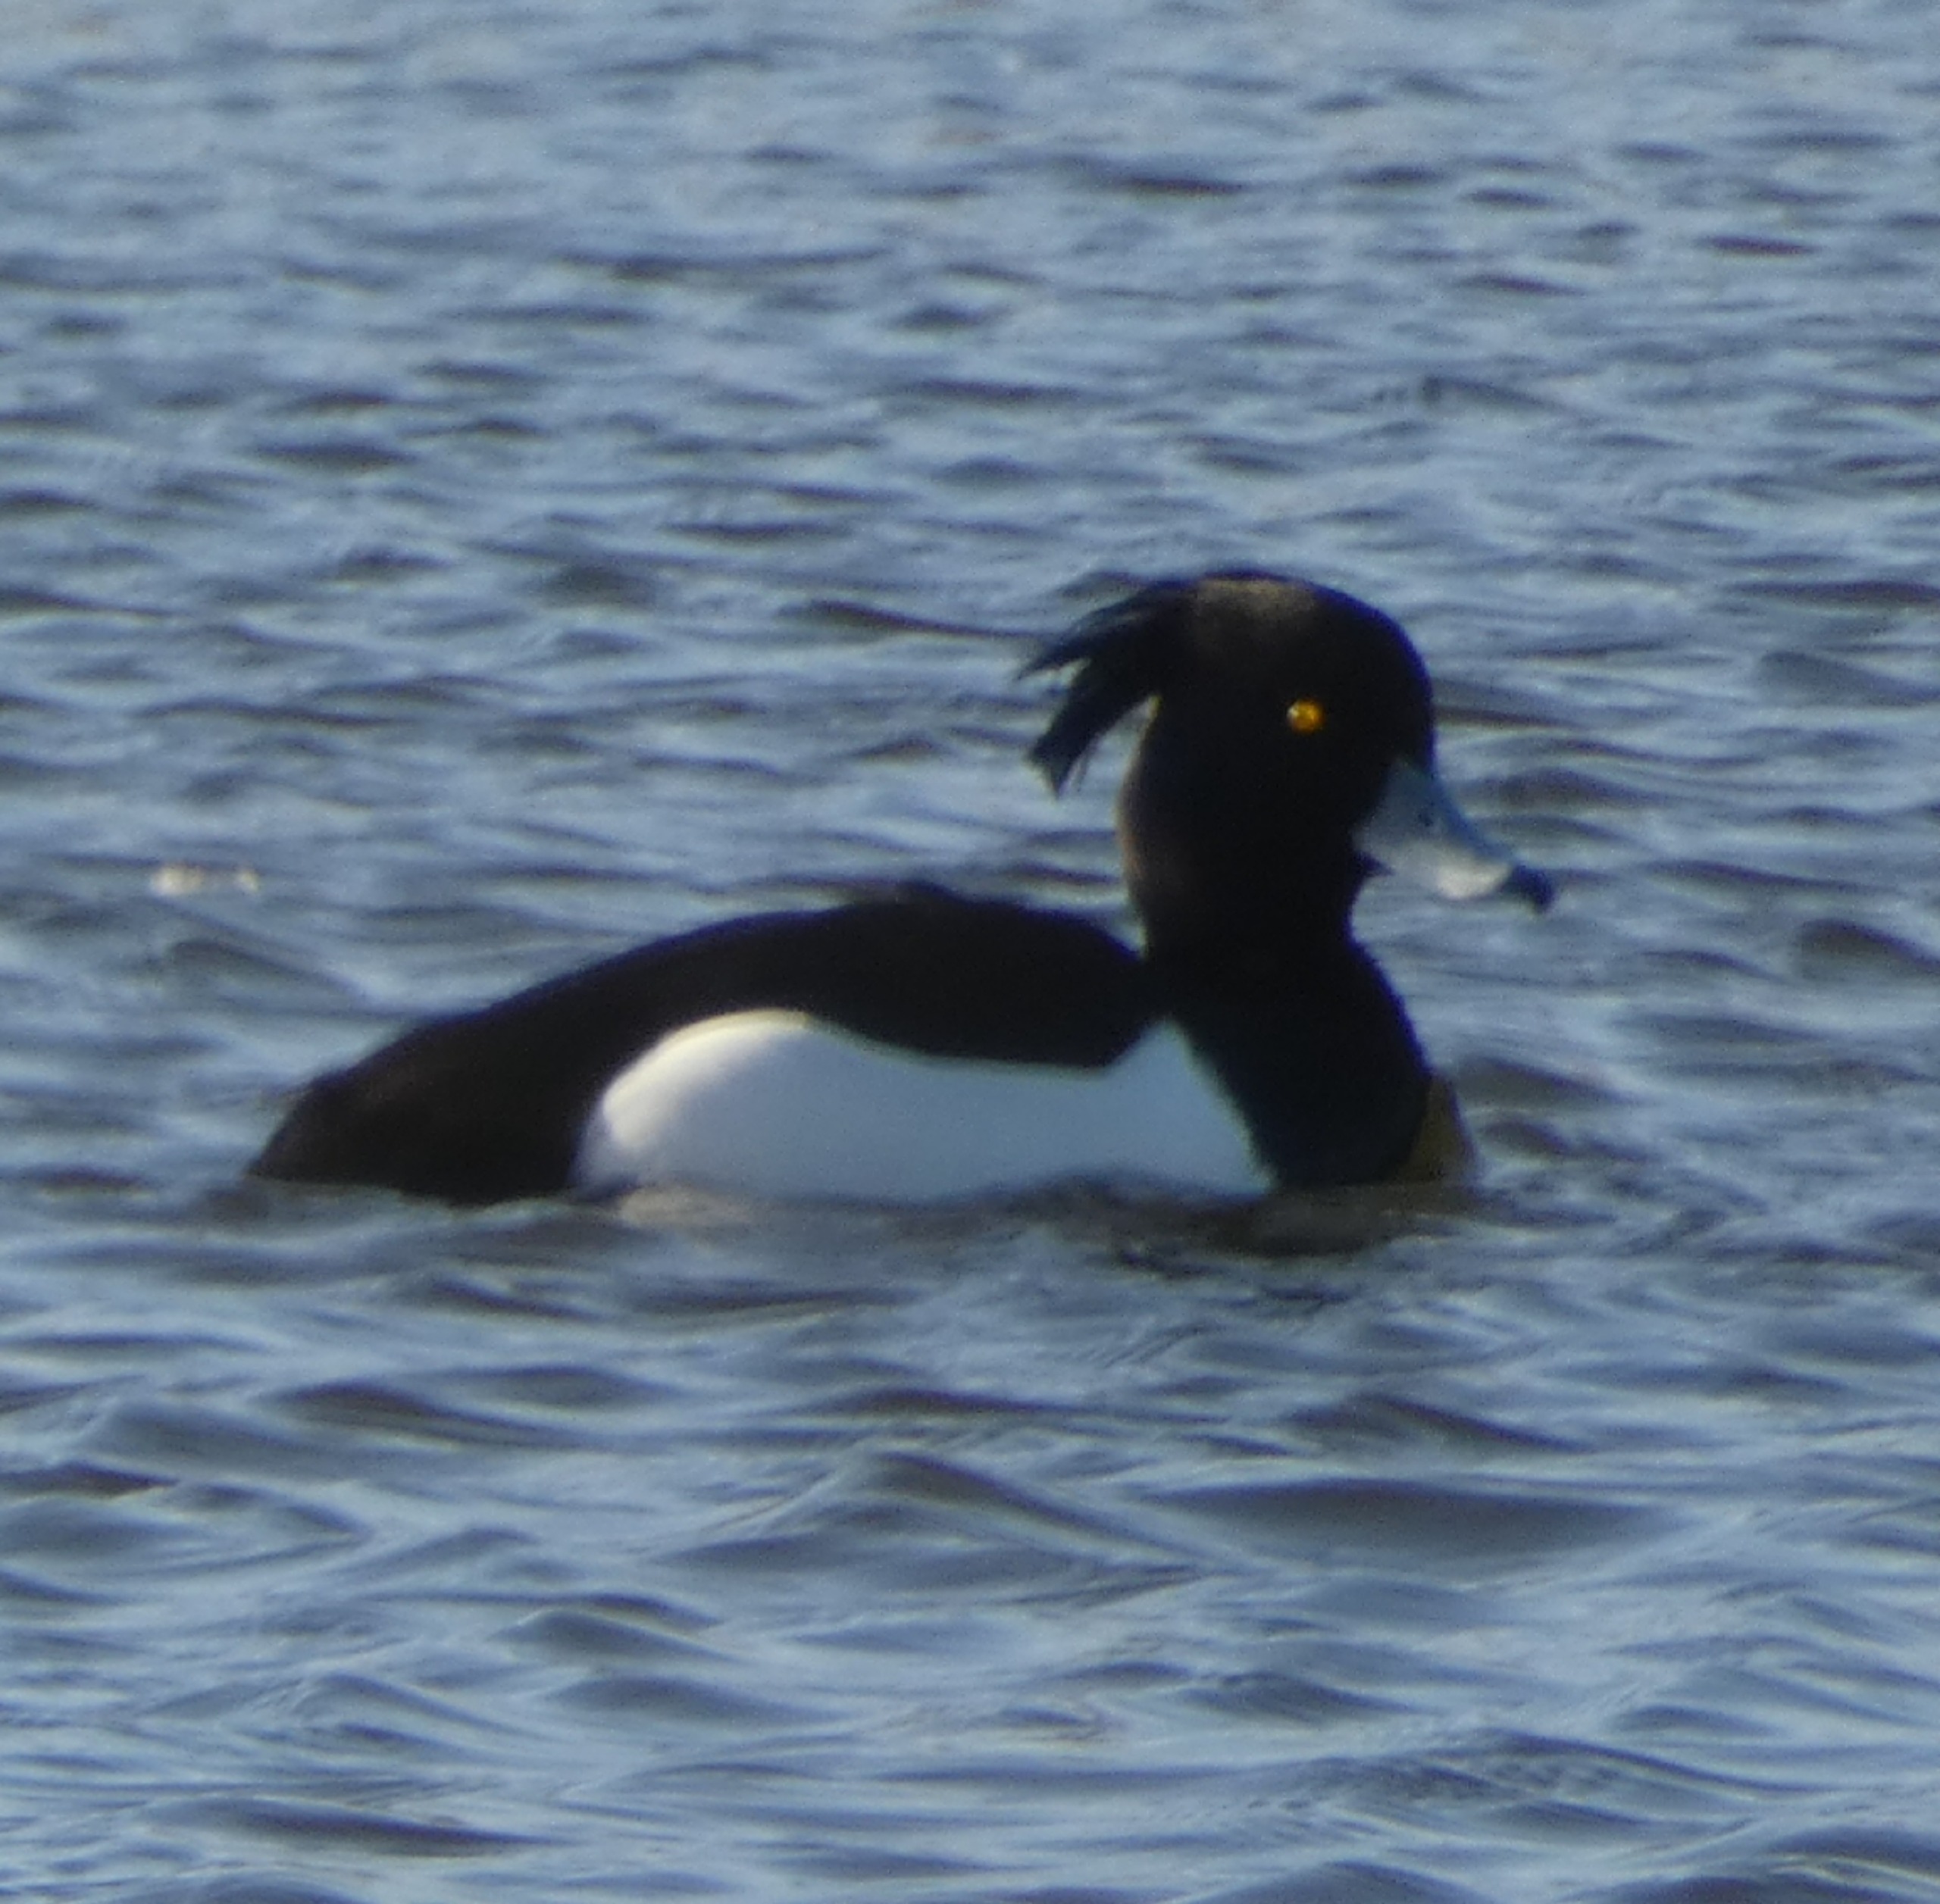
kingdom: Animalia
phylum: Chordata
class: Aves
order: Anseriformes
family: Anatidae
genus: Aythya
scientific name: Aythya fuligula
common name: Troldand
